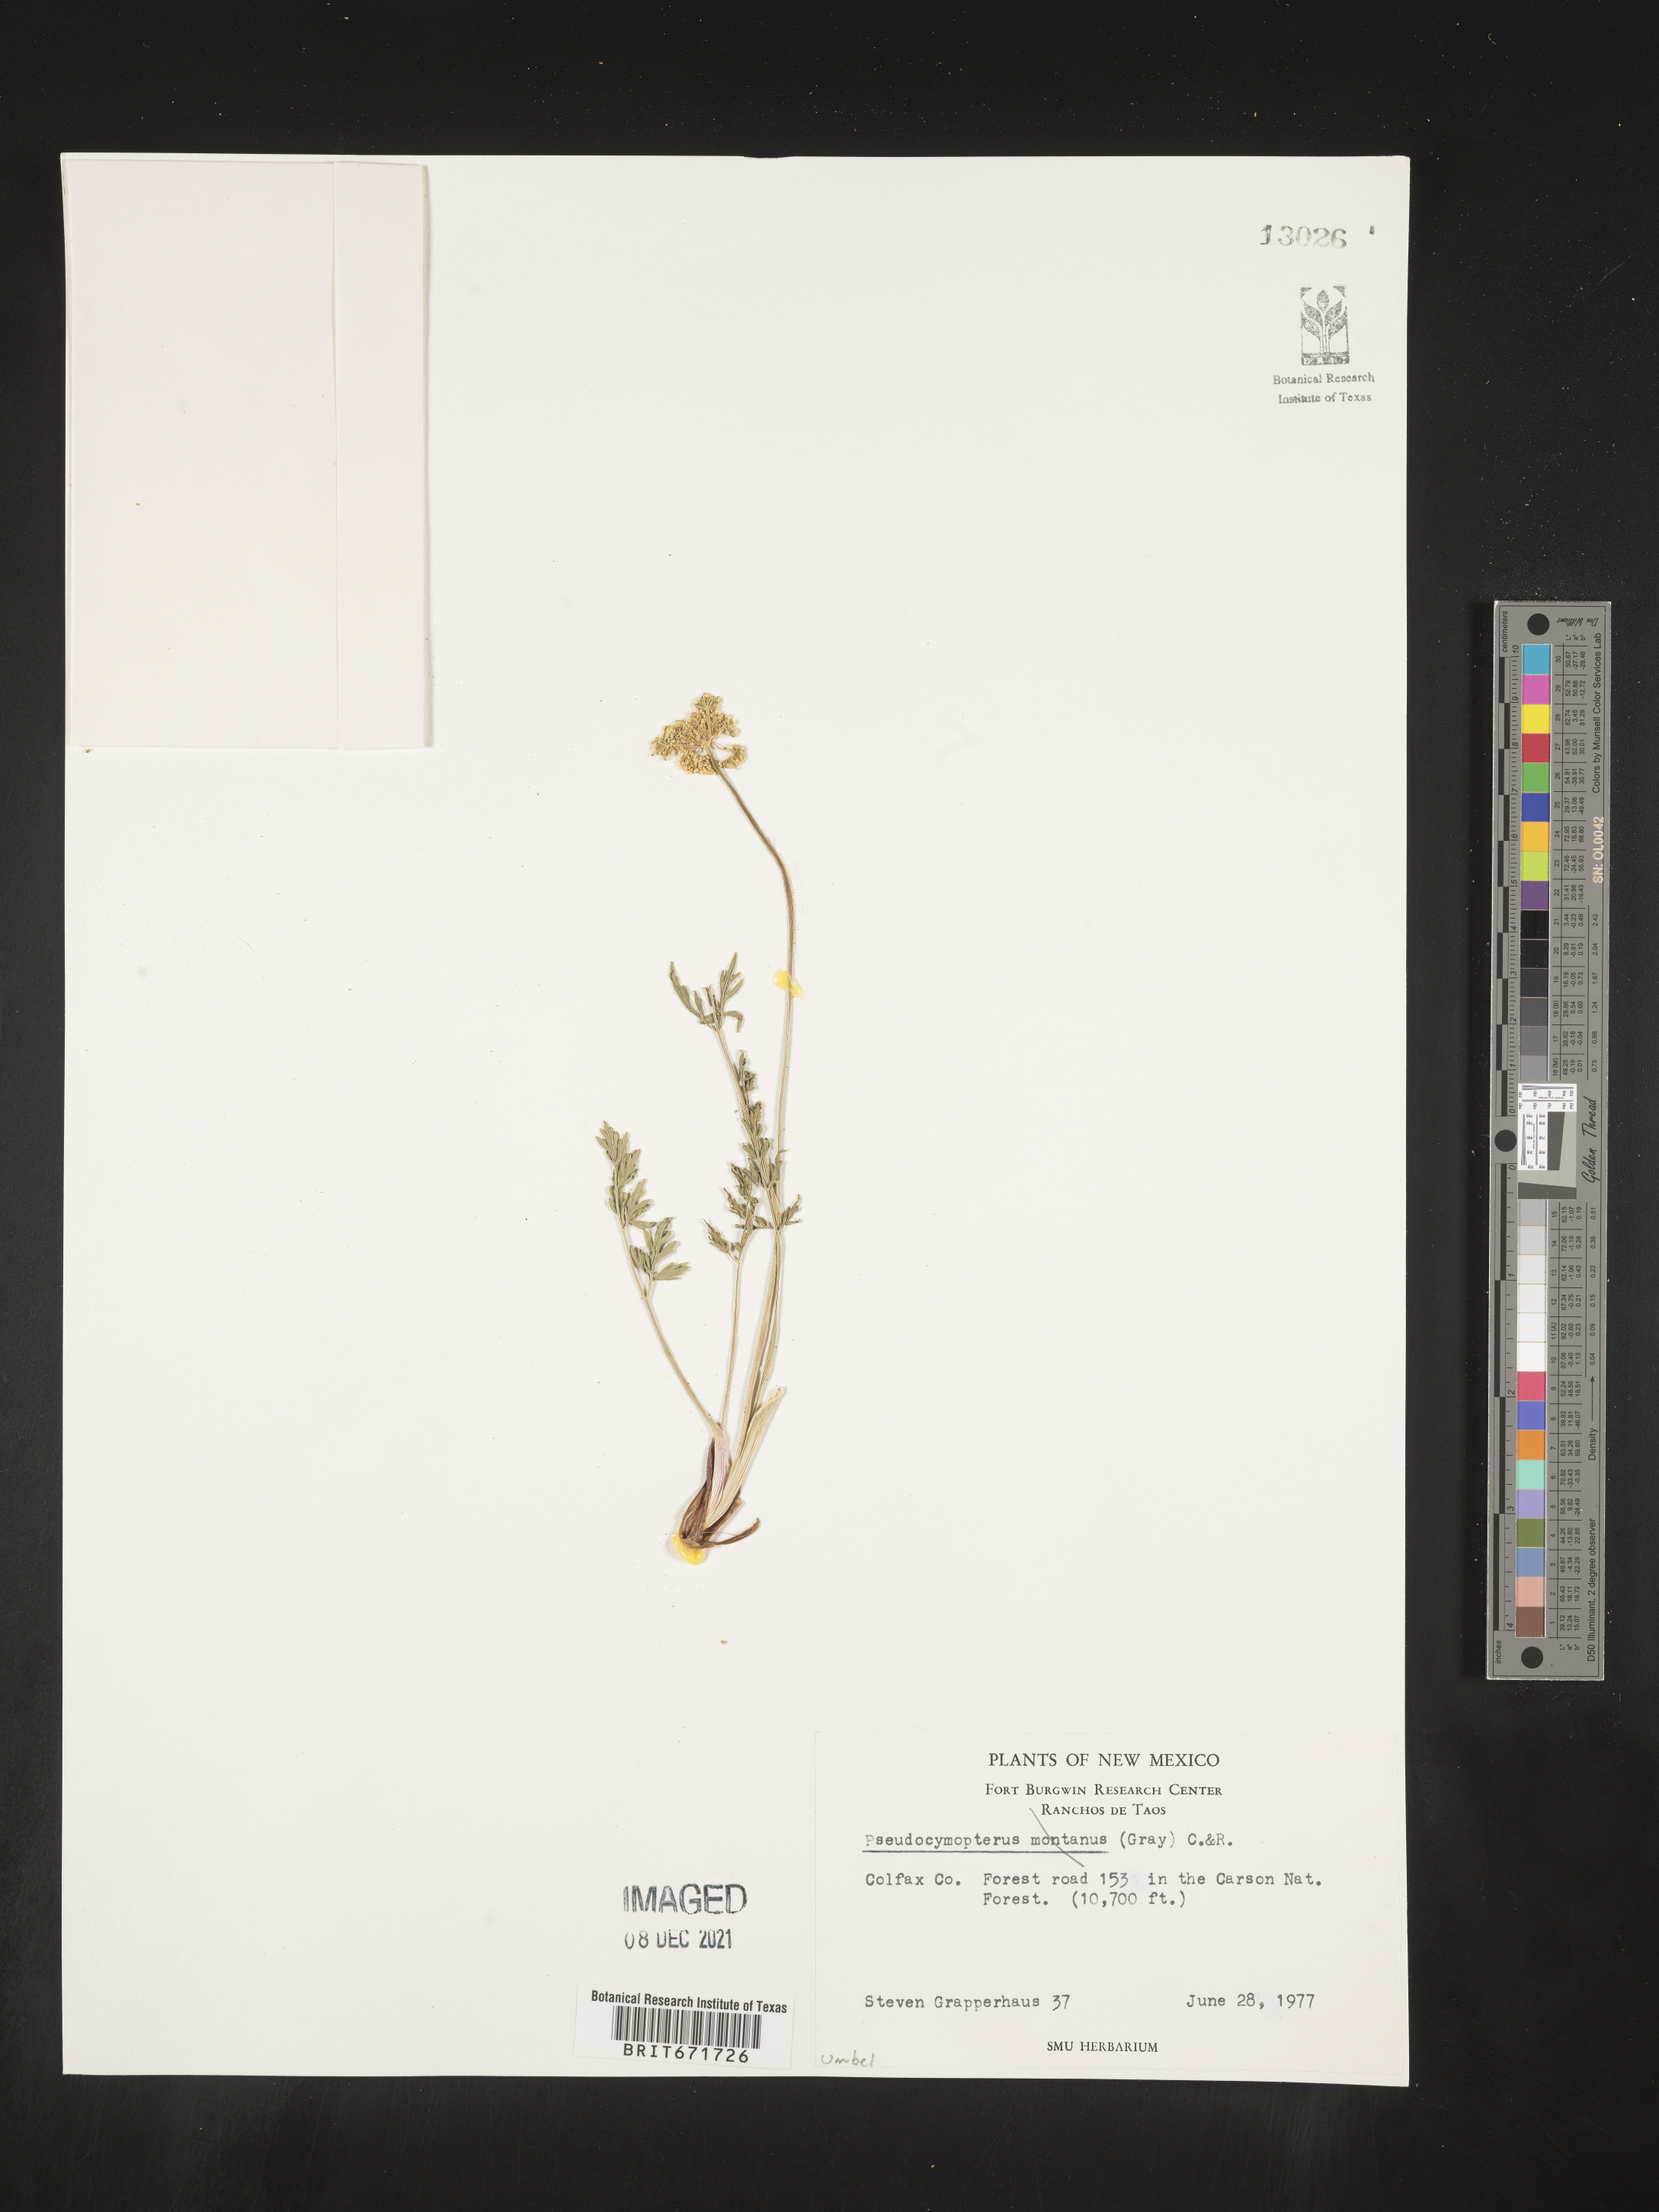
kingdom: Plantae
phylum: Tracheophyta
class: Magnoliopsida
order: Apiales
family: Apiaceae
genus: Cymopterus
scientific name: Cymopterus lemmonii
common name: Lemmon's spring-parsley
